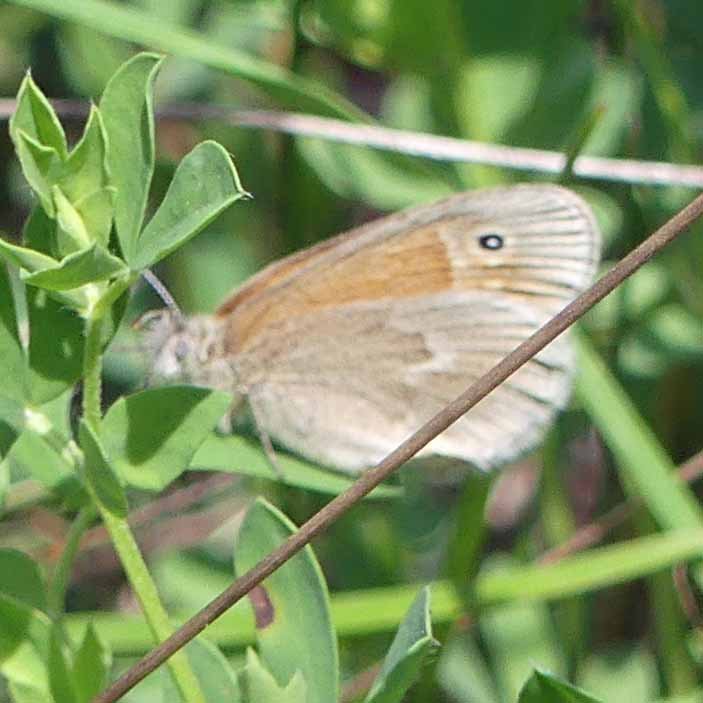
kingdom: Animalia
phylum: Arthropoda
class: Insecta
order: Lepidoptera
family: Nymphalidae
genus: Coenonympha
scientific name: Coenonympha tullia
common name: Large Heath
